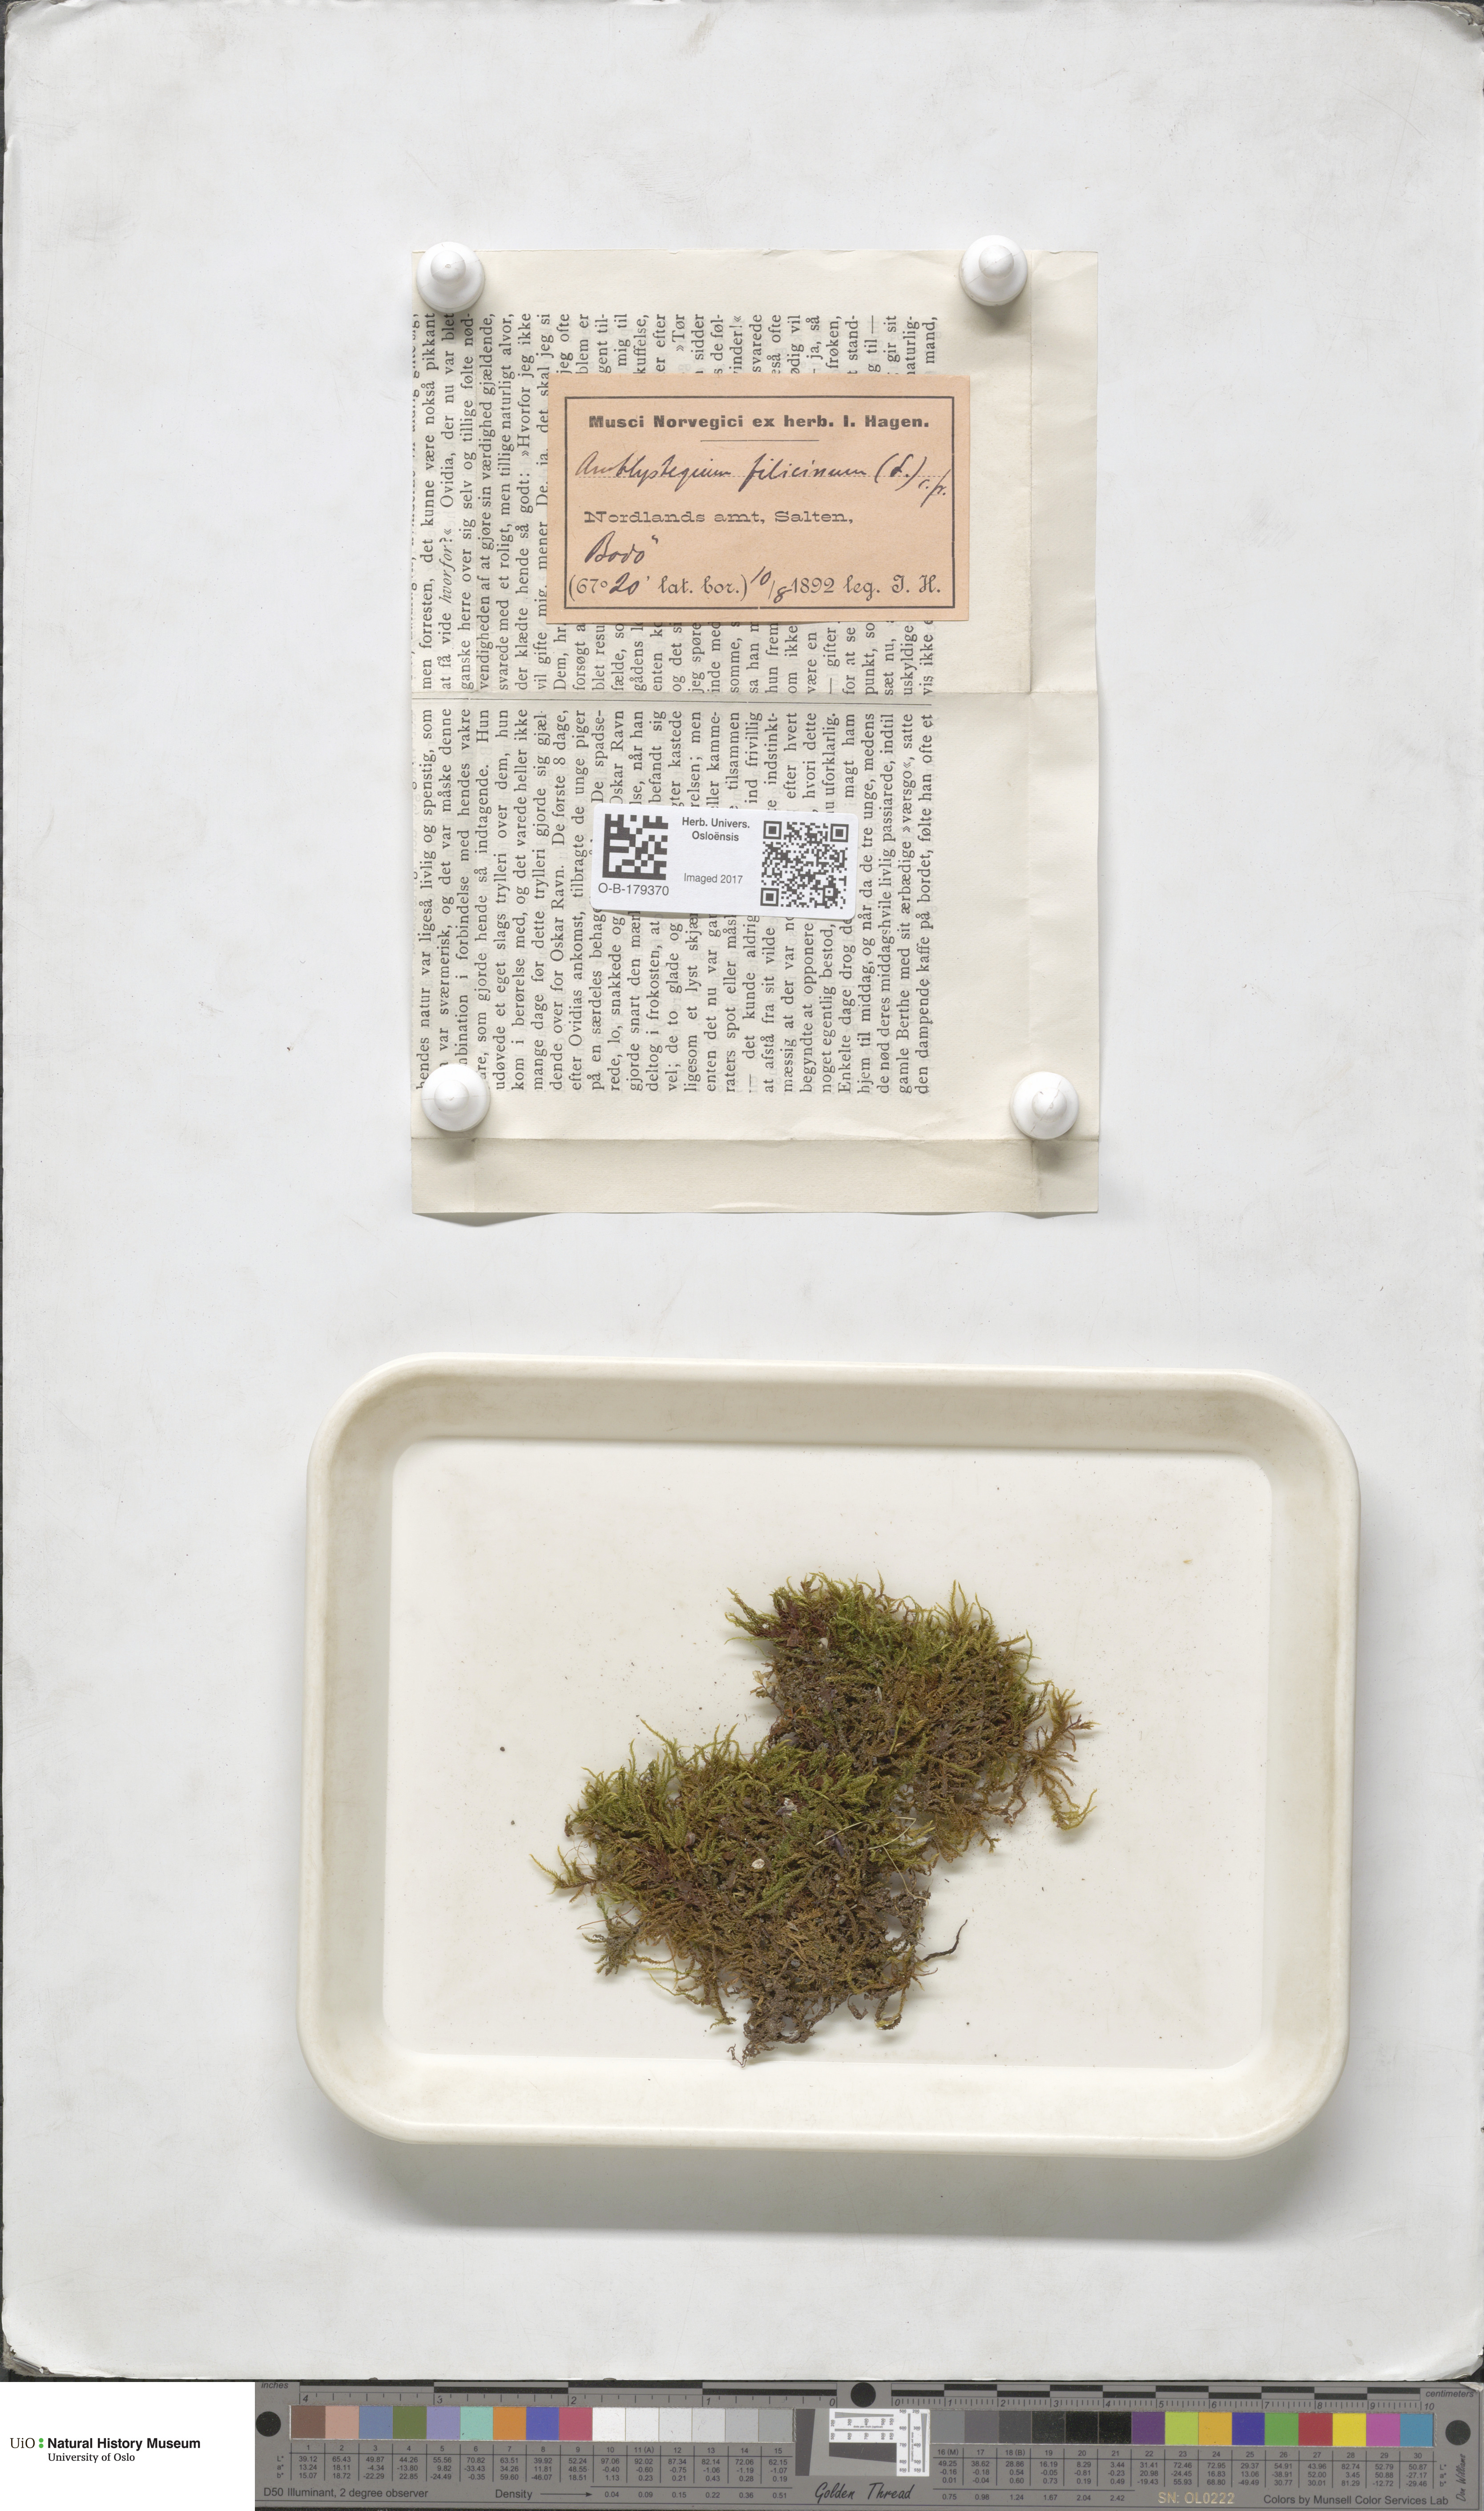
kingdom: Plantae
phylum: Bryophyta
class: Bryopsida
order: Hypnales
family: Amblystegiaceae
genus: Cratoneuron
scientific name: Cratoneuron filicinum
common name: Fern-leaved hook moss
